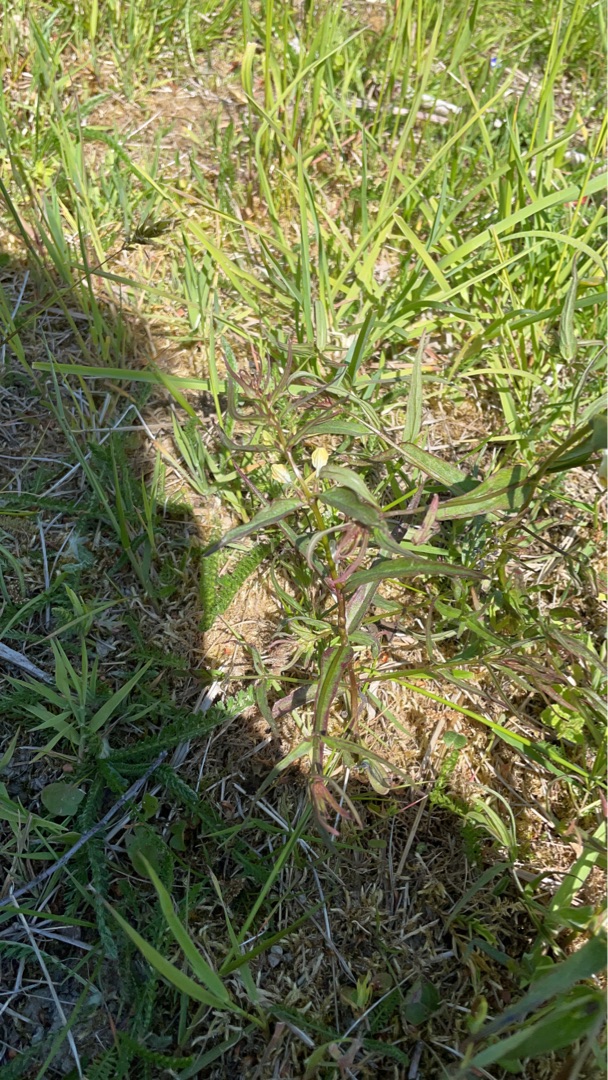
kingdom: Plantae
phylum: Tracheophyta
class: Magnoliopsida
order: Lamiales
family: Orobanchaceae
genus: Melampyrum
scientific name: Melampyrum pratense
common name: Almindelig kohvede
